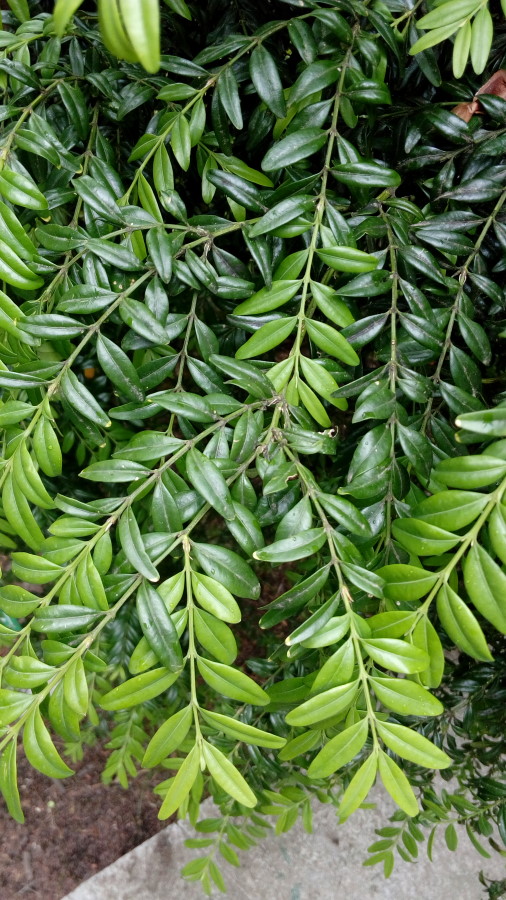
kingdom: Plantae
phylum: Tracheophyta
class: Magnoliopsida
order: Fagales
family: Juglandaceae
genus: Carya
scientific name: Carya
